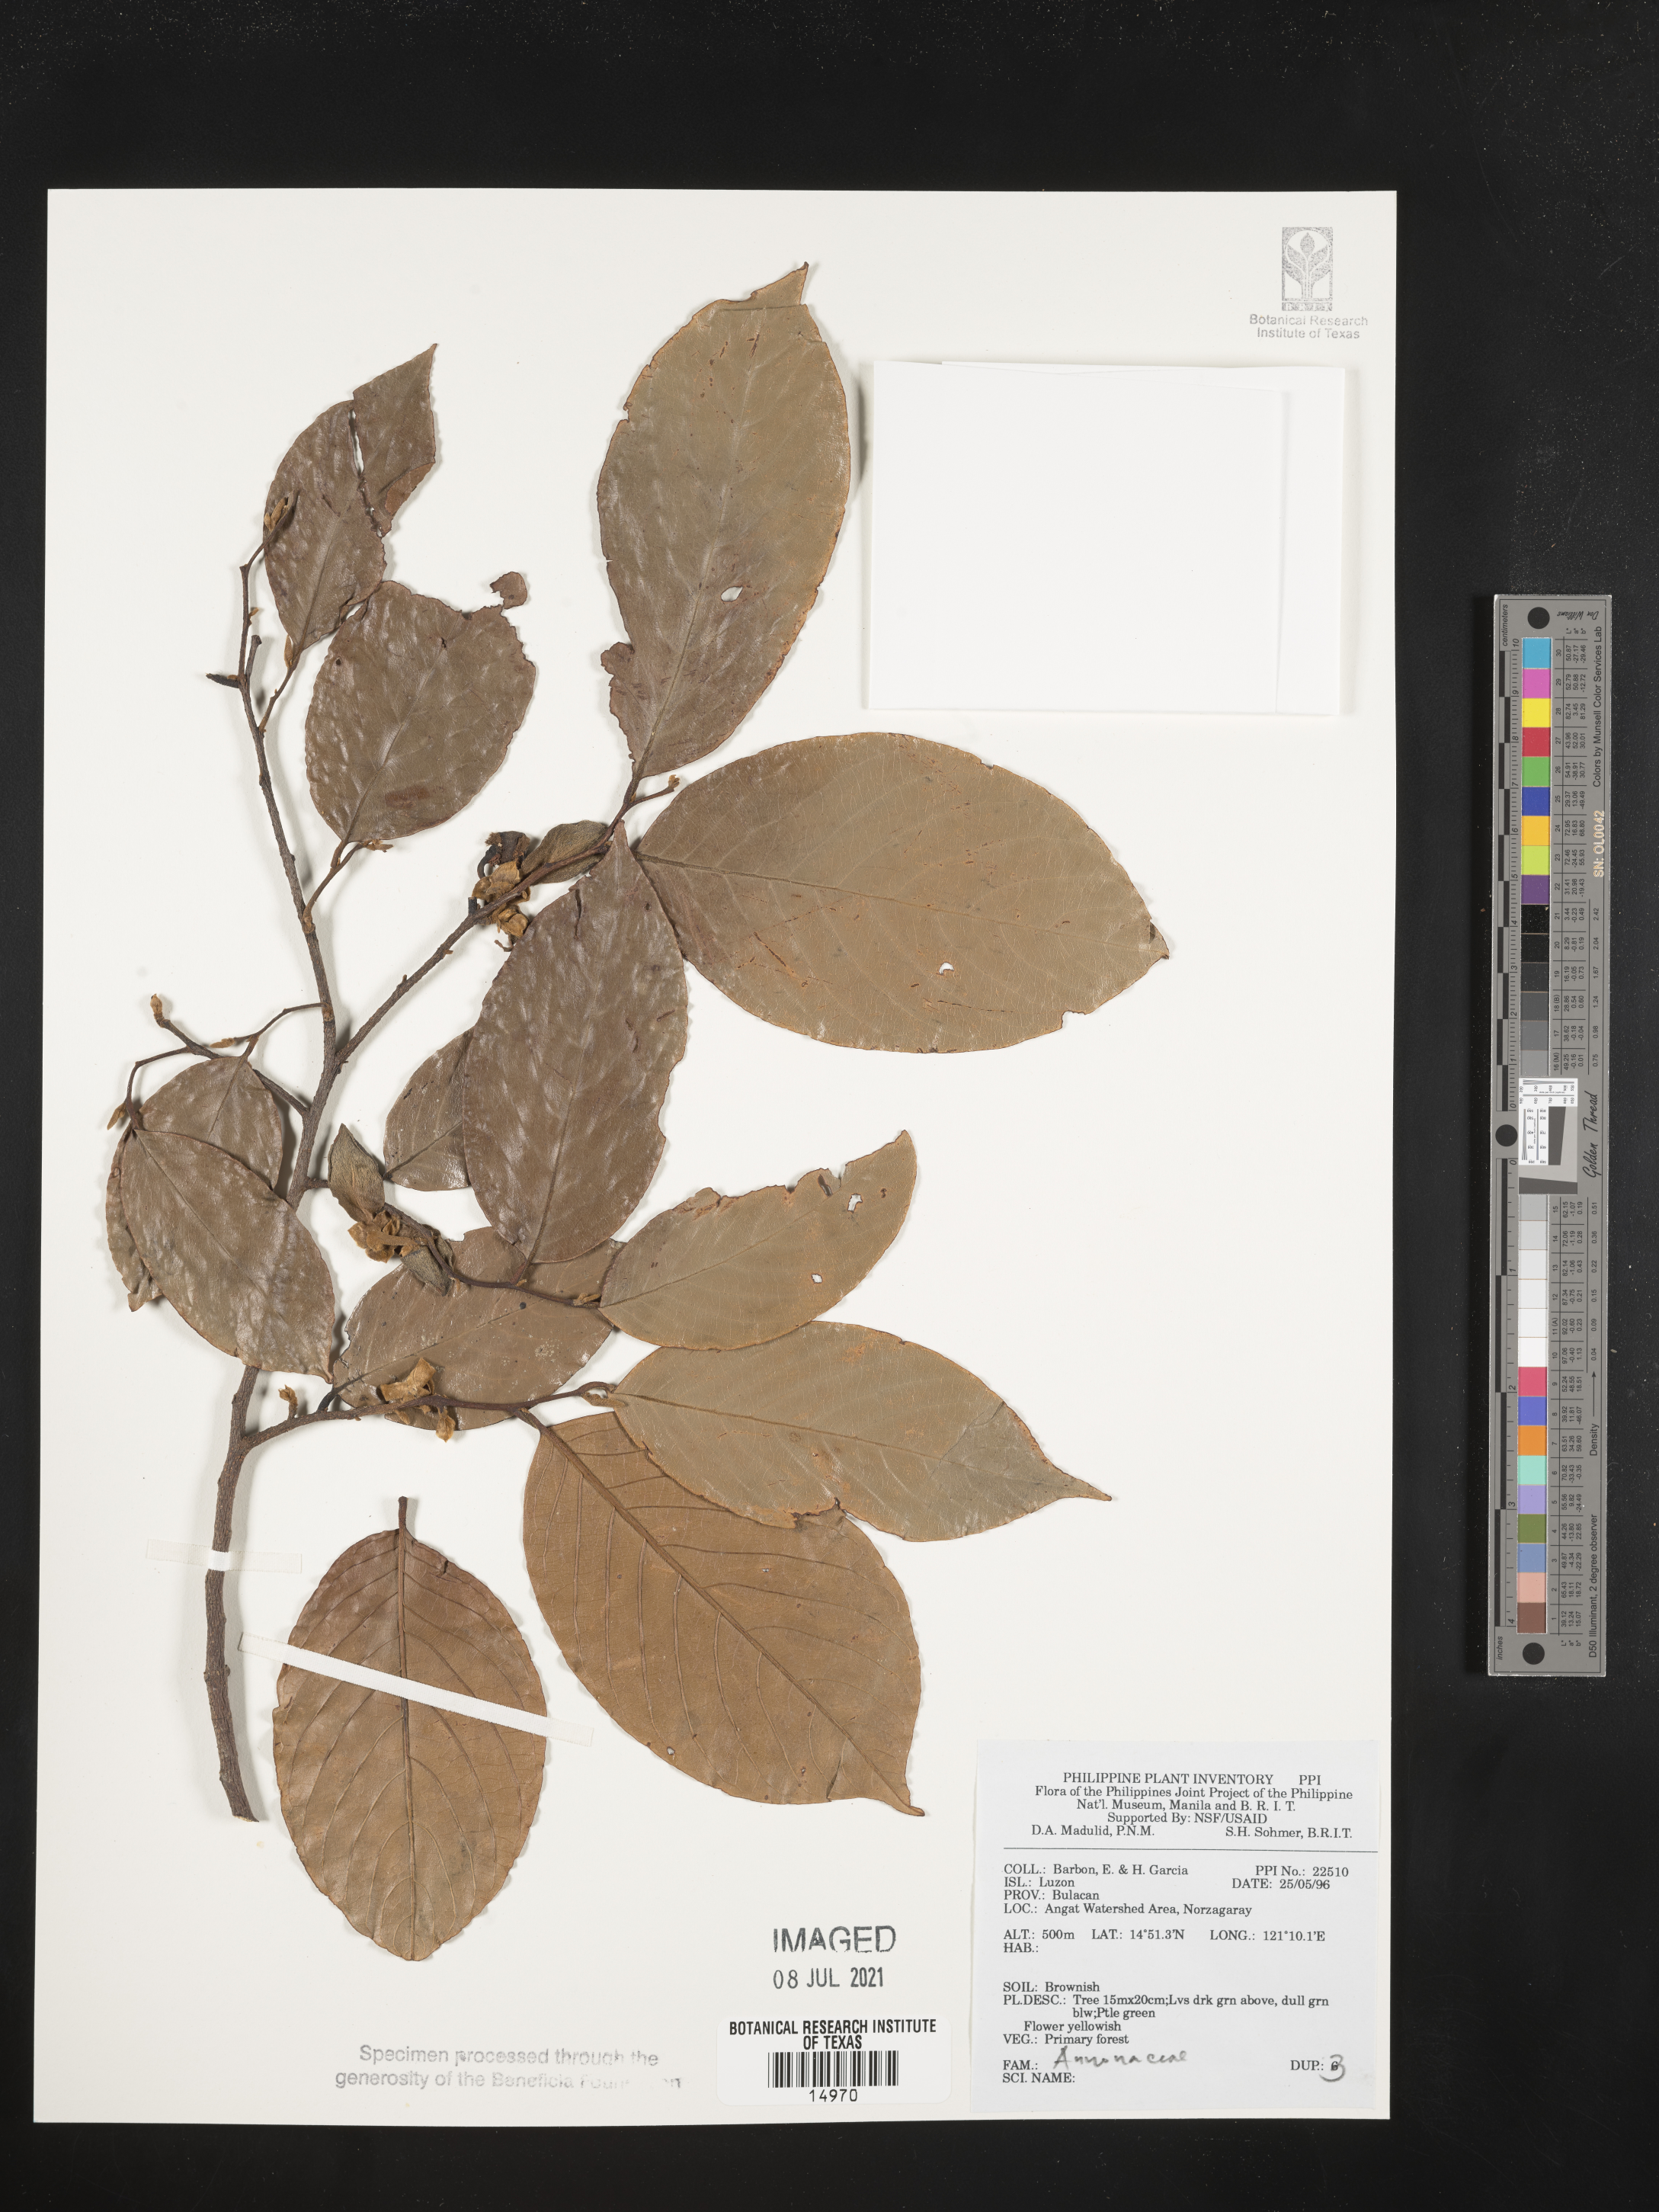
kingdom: Plantae
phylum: Tracheophyta
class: Magnoliopsida
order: Magnoliales
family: Annonaceae
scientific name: Annonaceae
